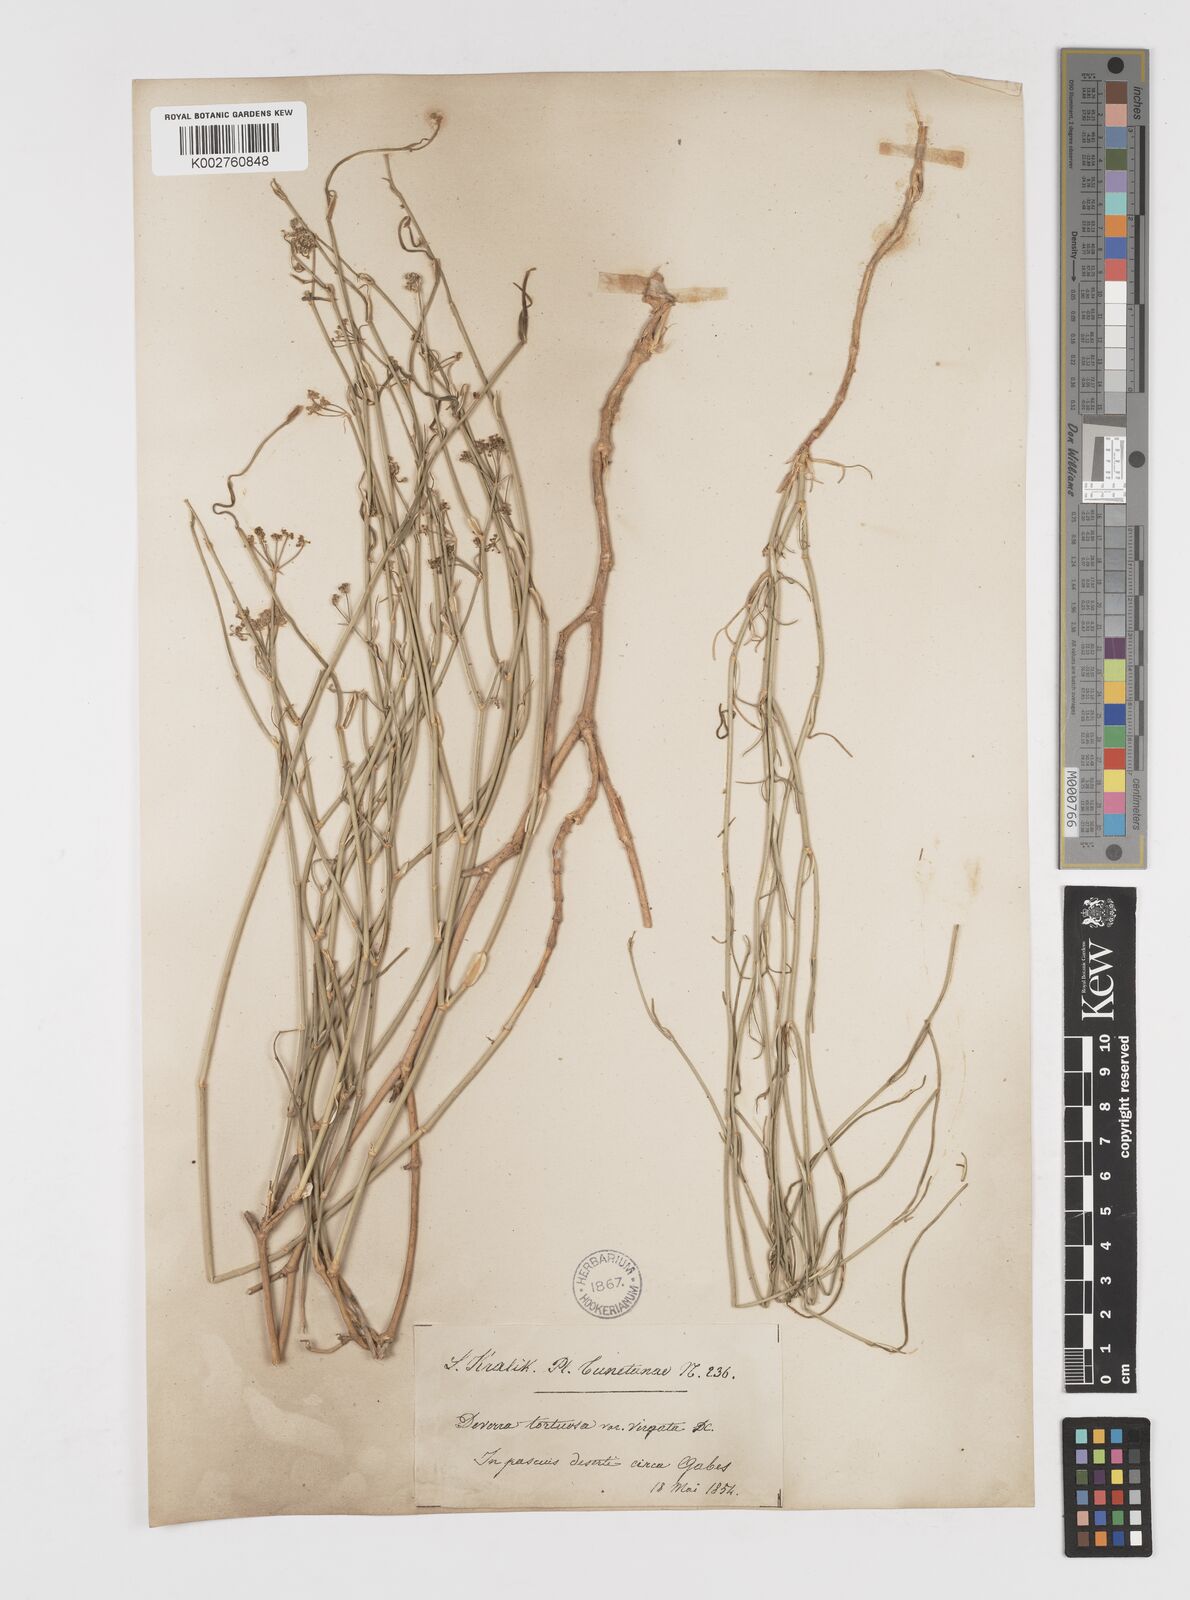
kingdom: Plantae
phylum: Tracheophyta
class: Magnoliopsida
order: Apiales
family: Apiaceae
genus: Deverra
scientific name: Deverra scoparia
